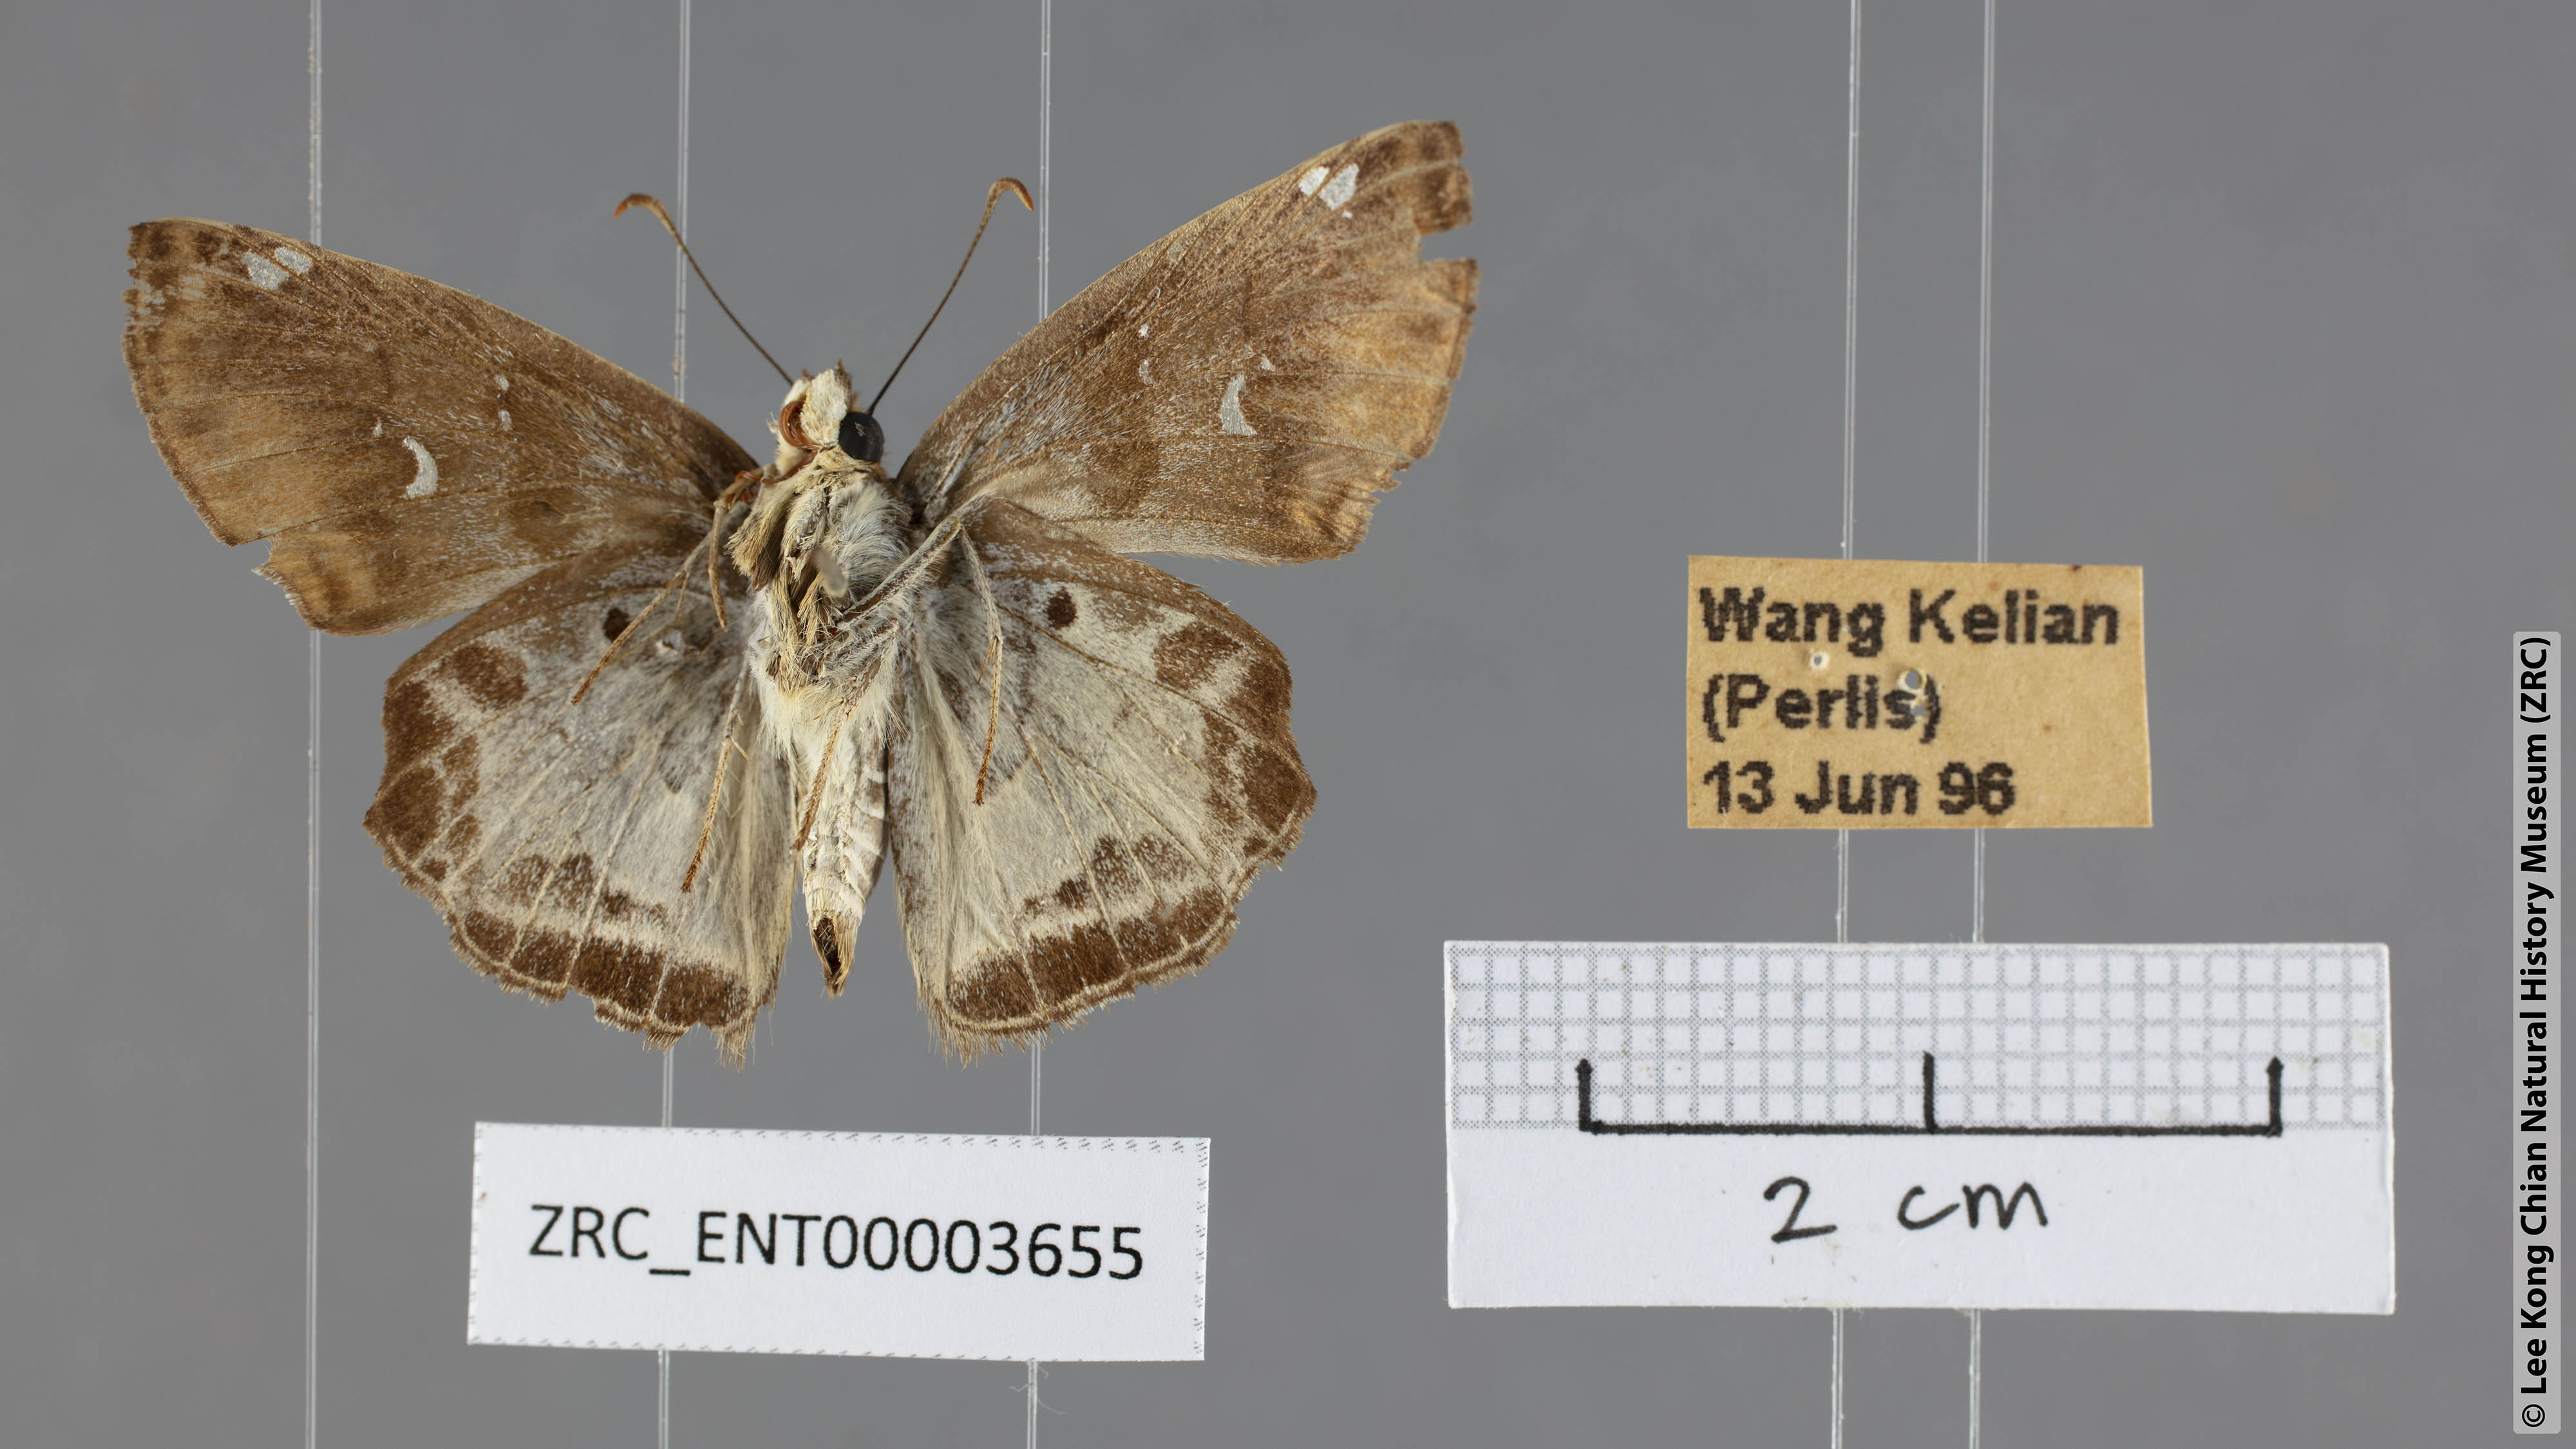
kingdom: Animalia
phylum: Arthropoda
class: Insecta
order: Lepidoptera
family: Hesperiidae
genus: Odontoptilum
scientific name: Odontoptilum angulata
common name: Chestnut banded angle
